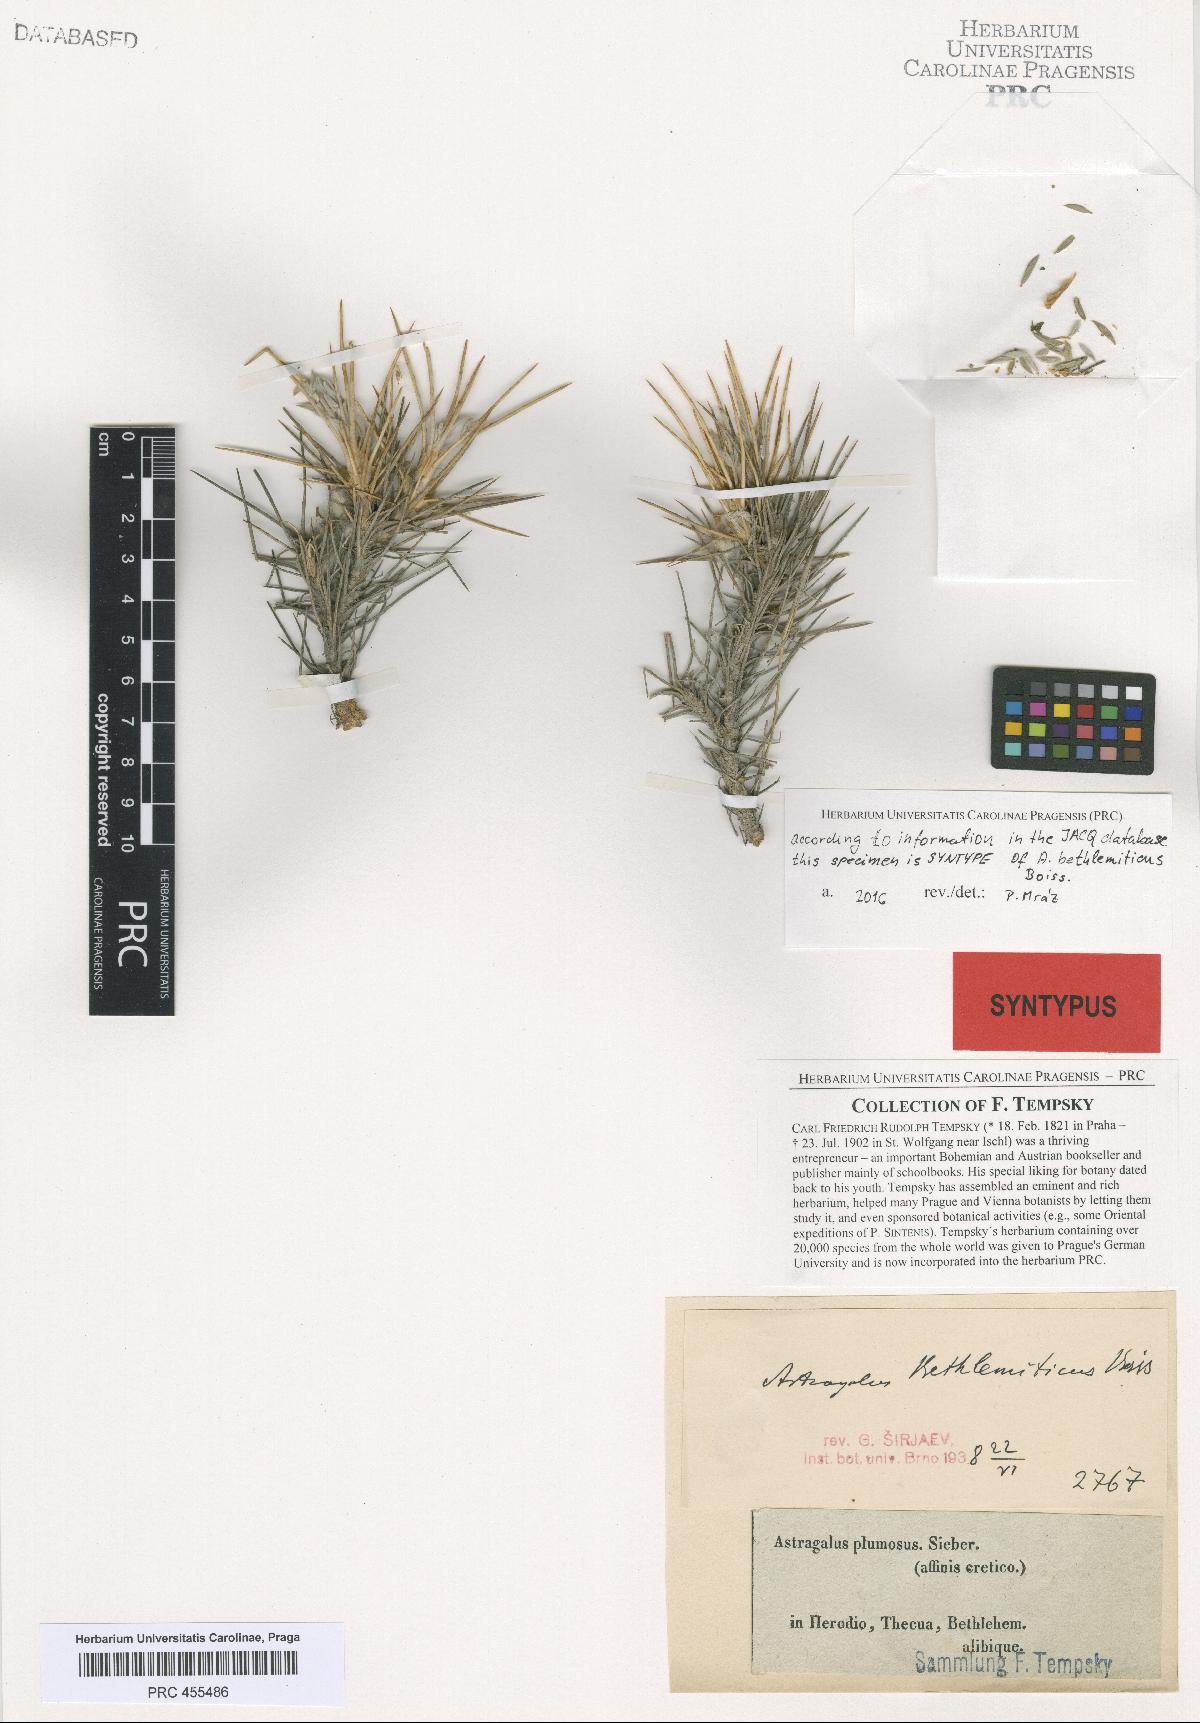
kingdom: Plantae
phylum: Tracheophyta
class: Magnoliopsida
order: Fabales
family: Fabaceae
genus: Astragalus
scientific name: Astragalus bethlehemiticus
